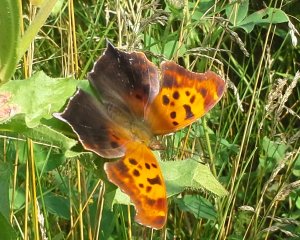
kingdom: Animalia
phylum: Arthropoda
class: Insecta
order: Lepidoptera
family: Nymphalidae
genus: Polygonia
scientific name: Polygonia interrogationis
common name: Question Mark
